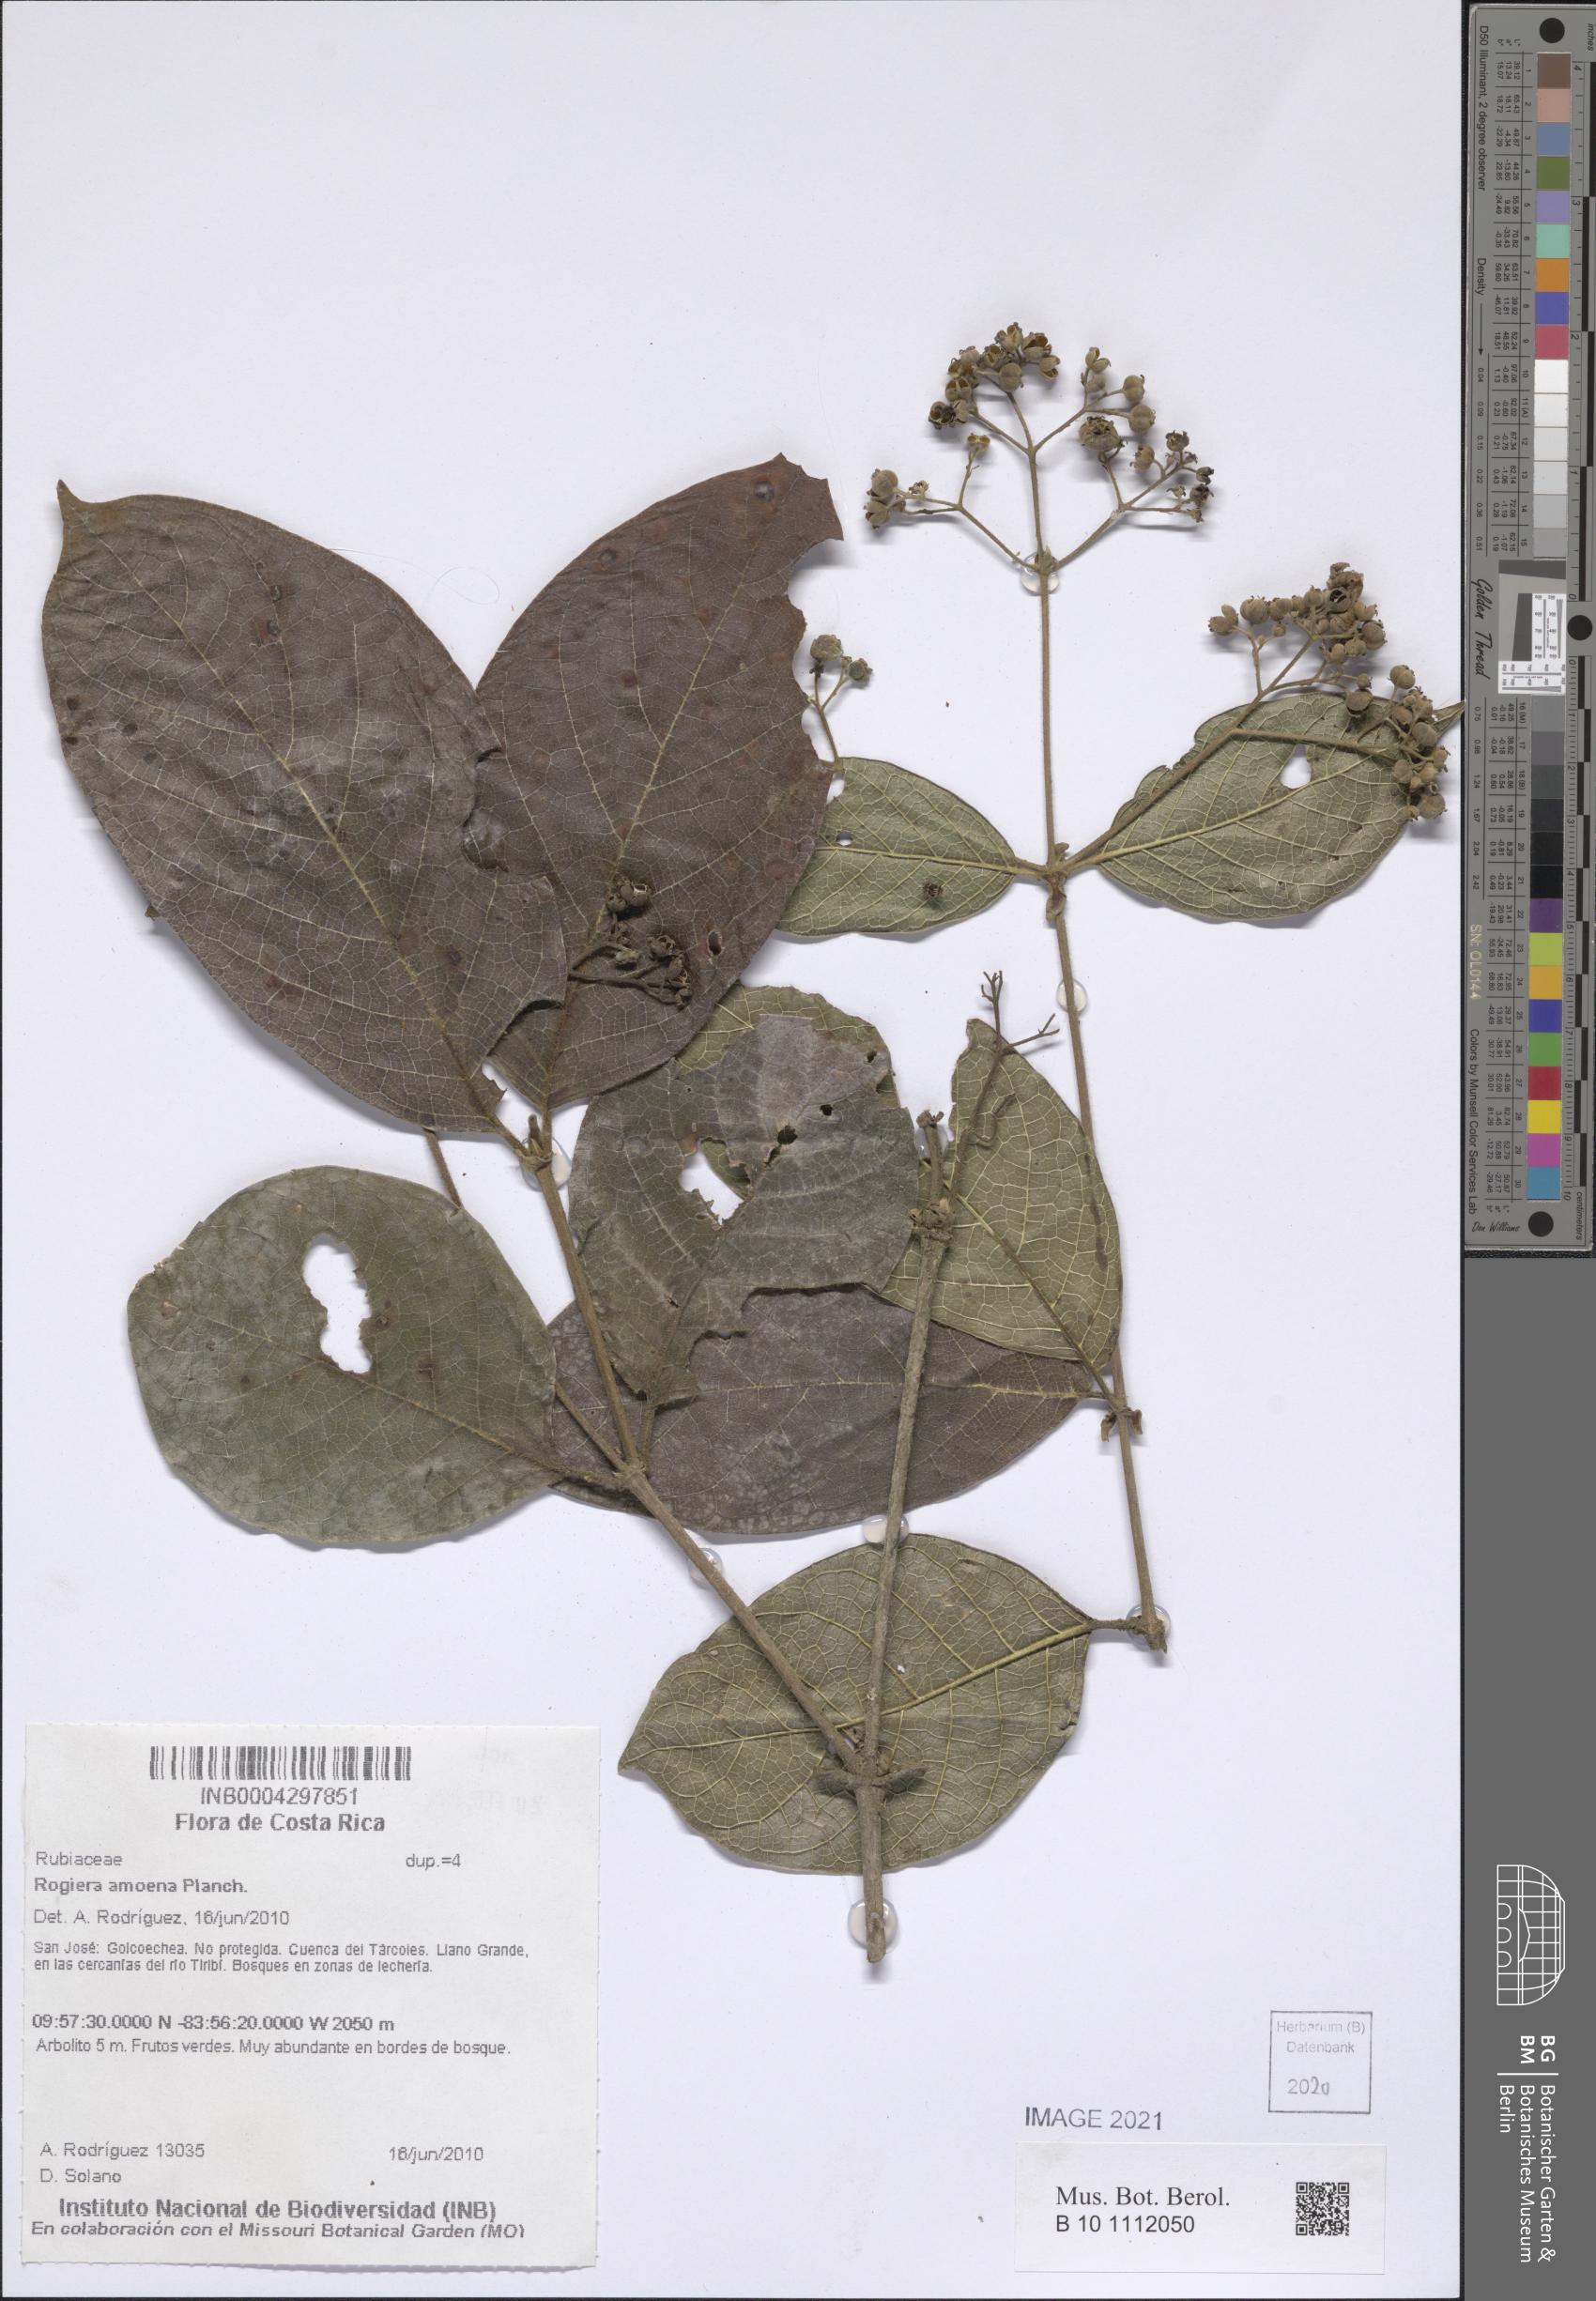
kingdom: Plantae
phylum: Tracheophyta
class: Magnoliopsida
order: Gentianales
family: Rubiaceae
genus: Rogiera
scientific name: Rogiera amoena
